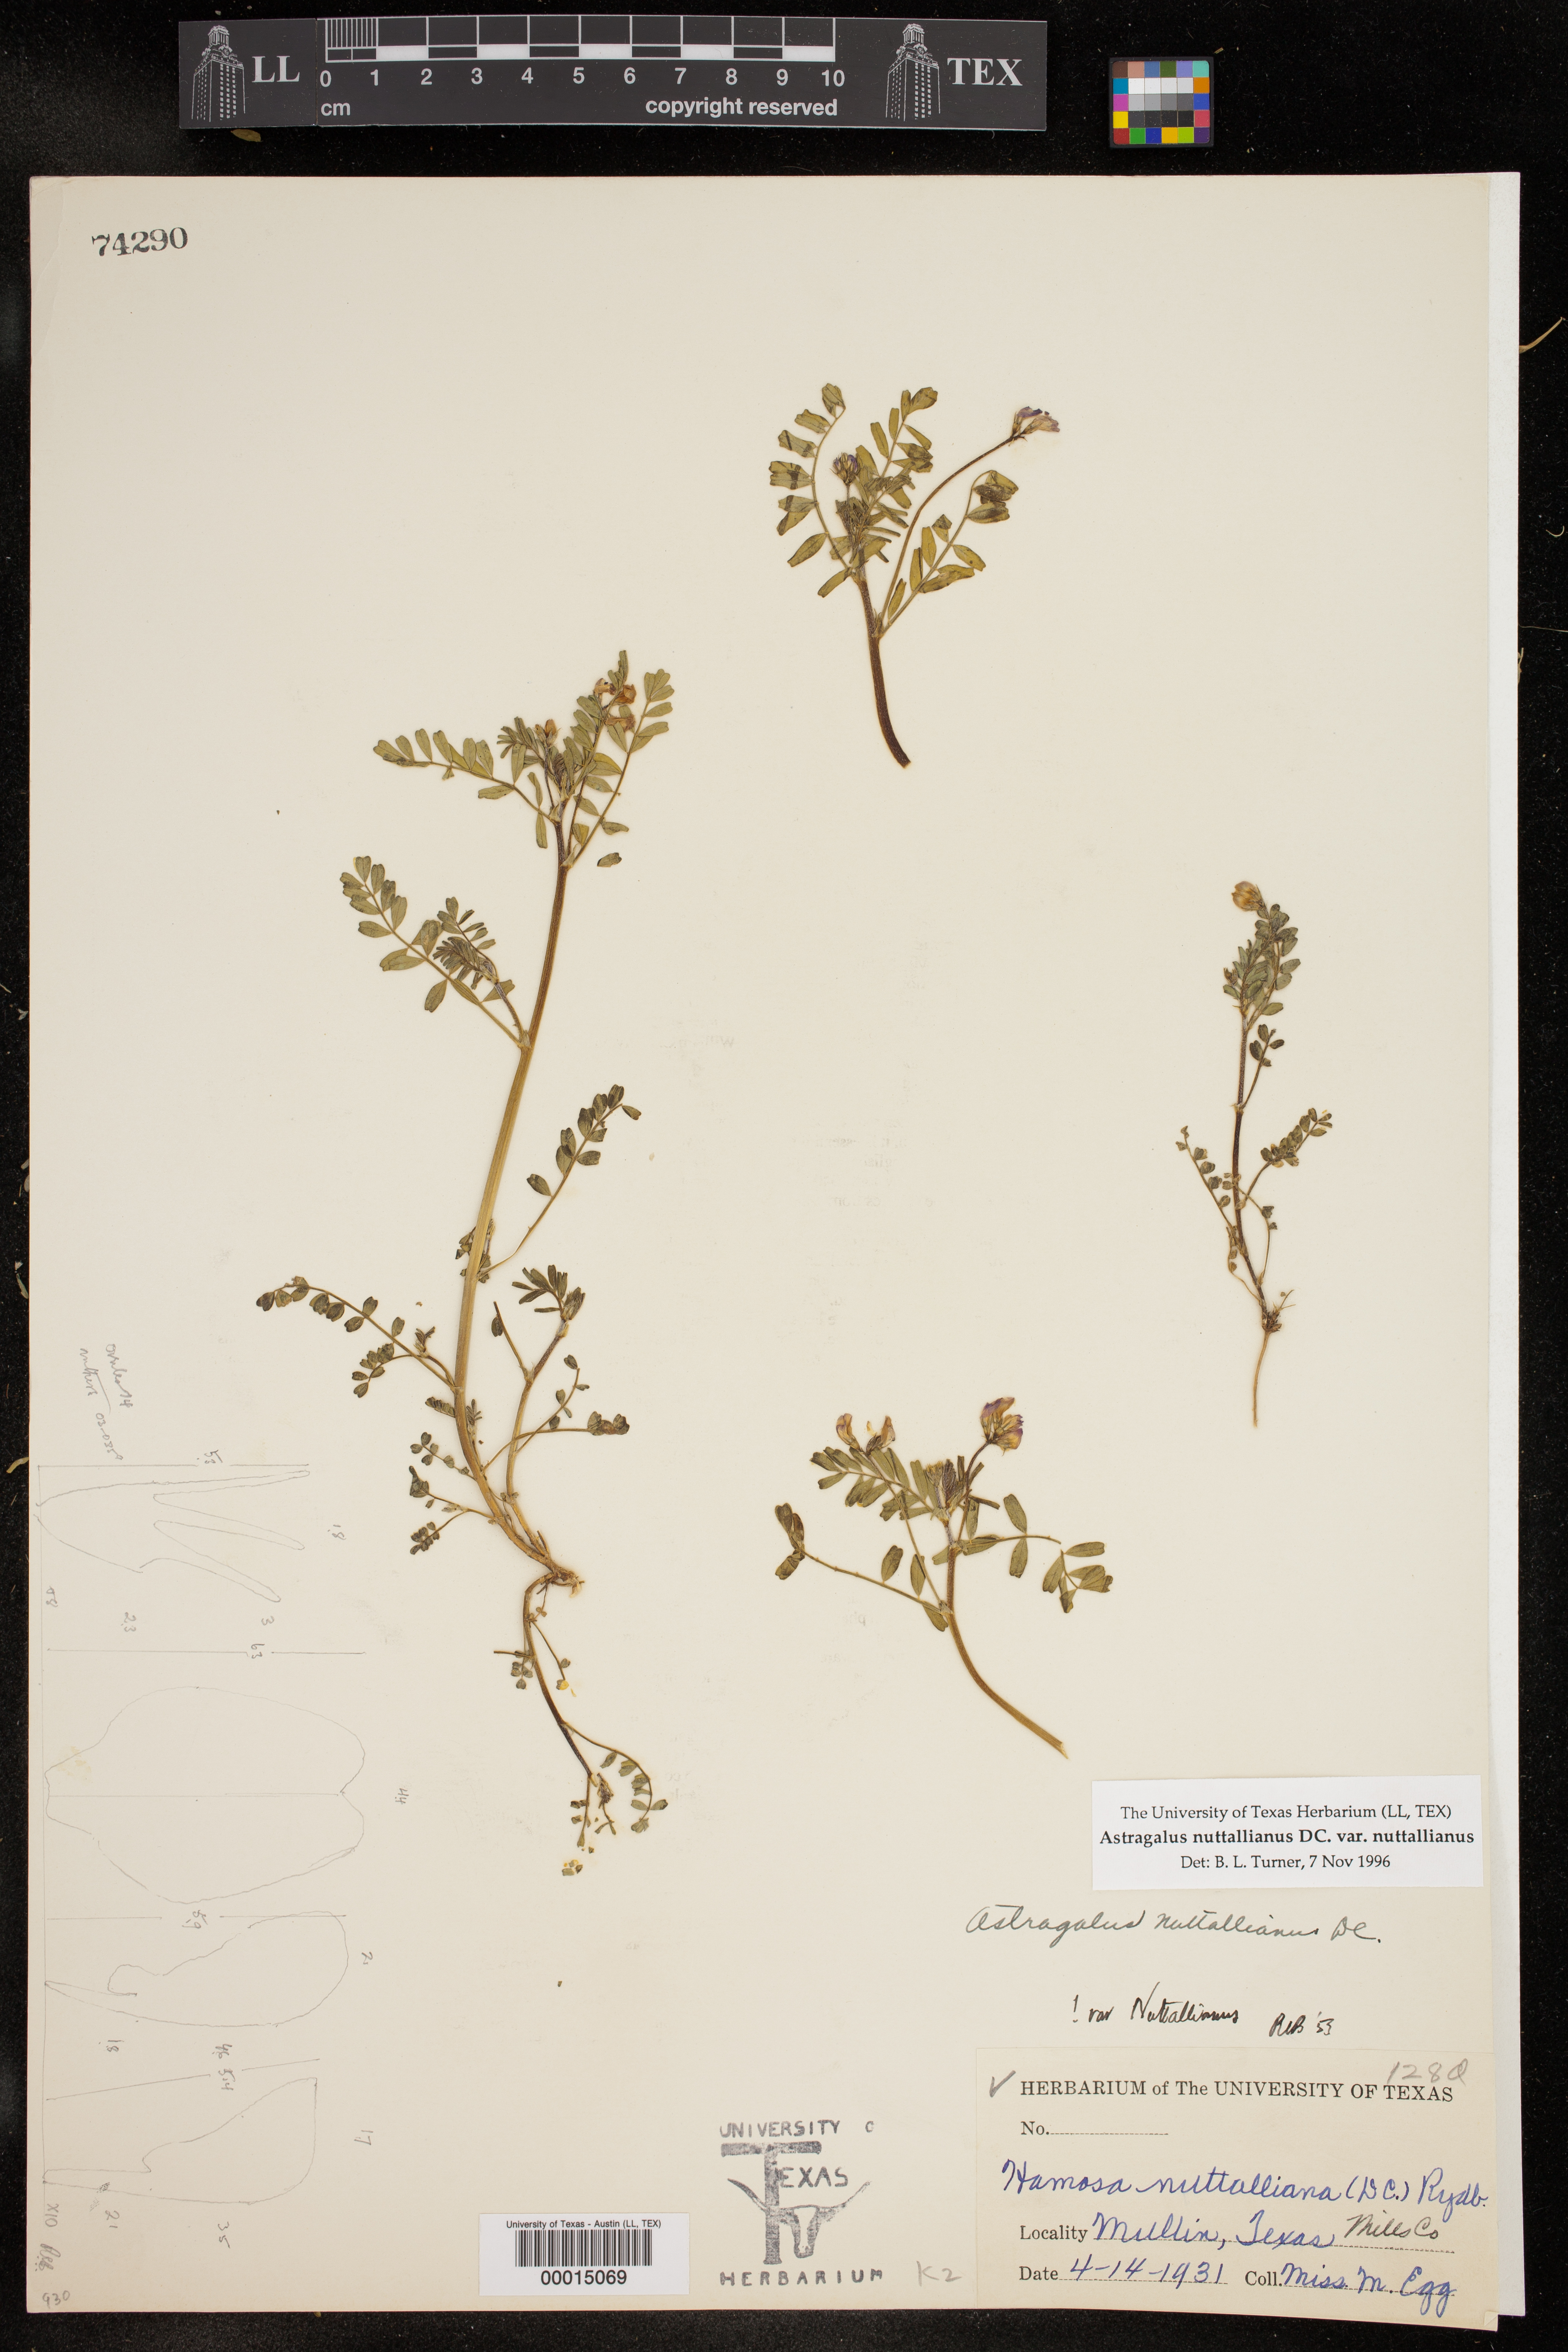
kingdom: Plantae
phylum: Tracheophyta
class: Magnoliopsida
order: Fabales
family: Fabaceae
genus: Astragalus
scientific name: Astragalus nuttallianus
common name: Smallflowered milkvetch
